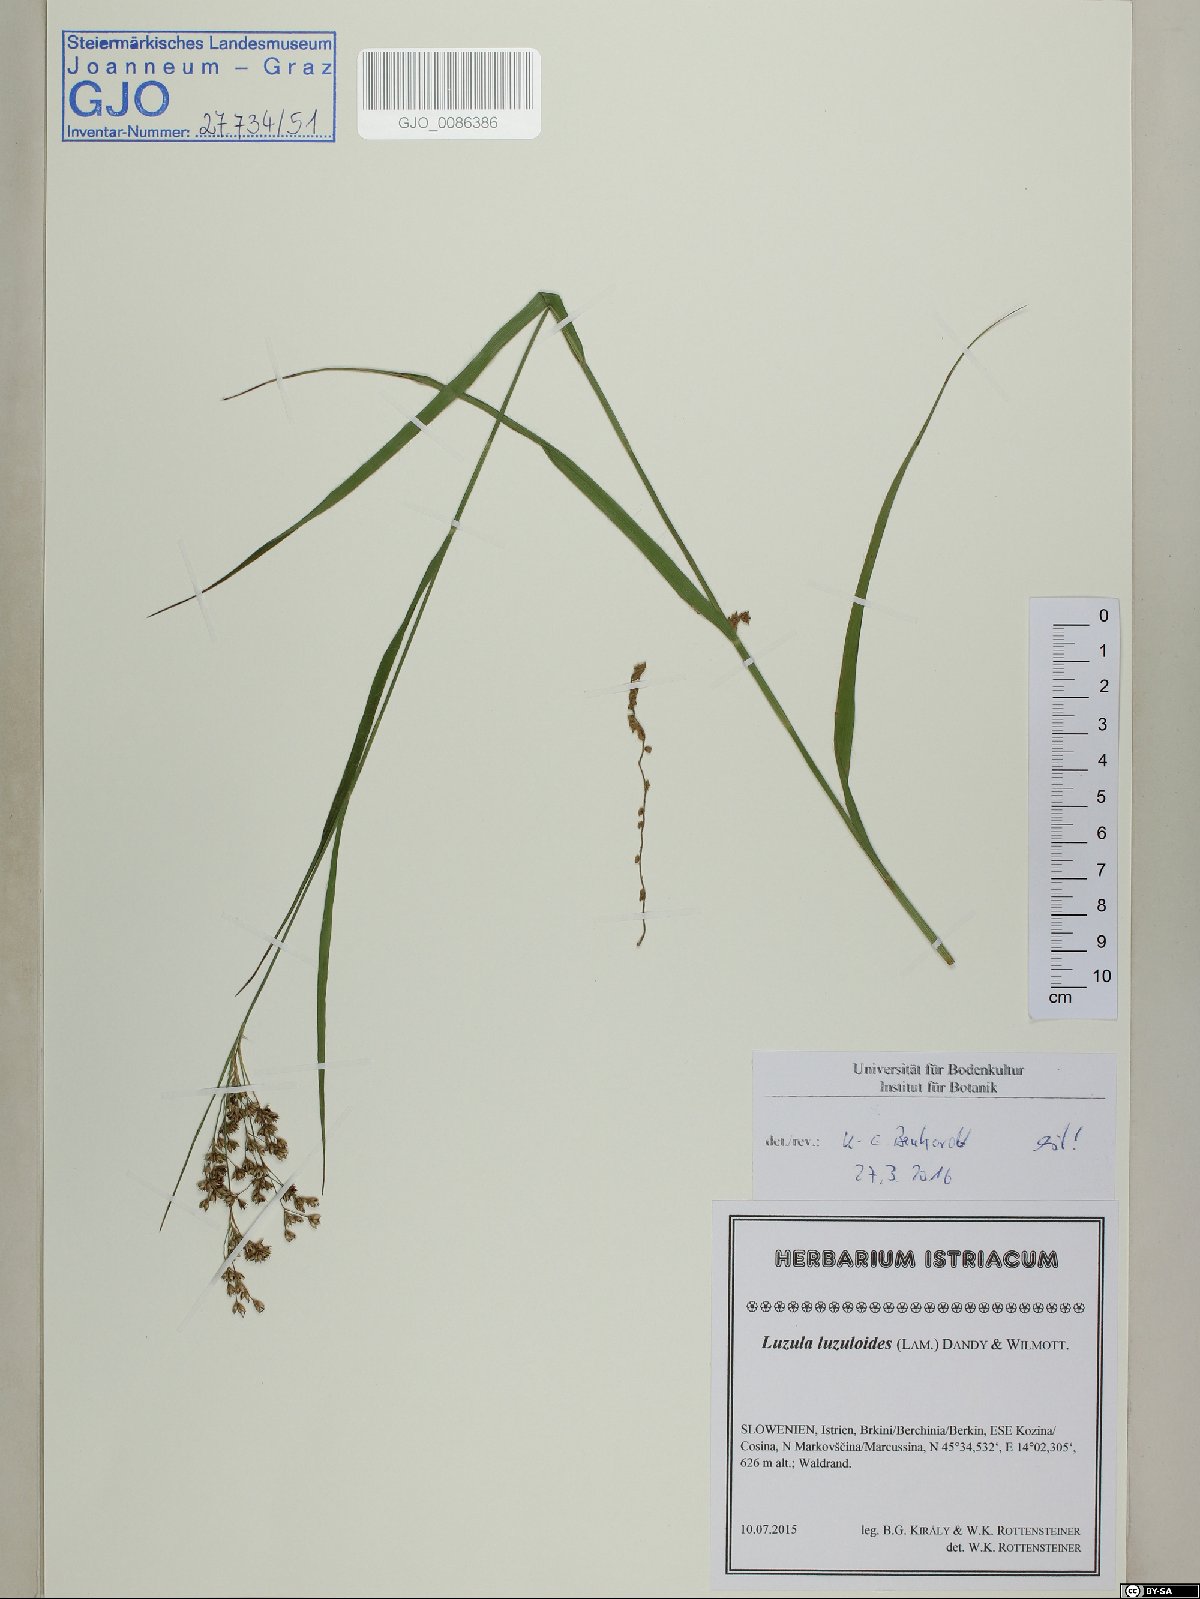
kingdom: Plantae
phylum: Tracheophyta
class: Liliopsida
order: Poales
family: Juncaceae
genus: Luzula
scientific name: Luzula luzuloides
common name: White wood-rush
